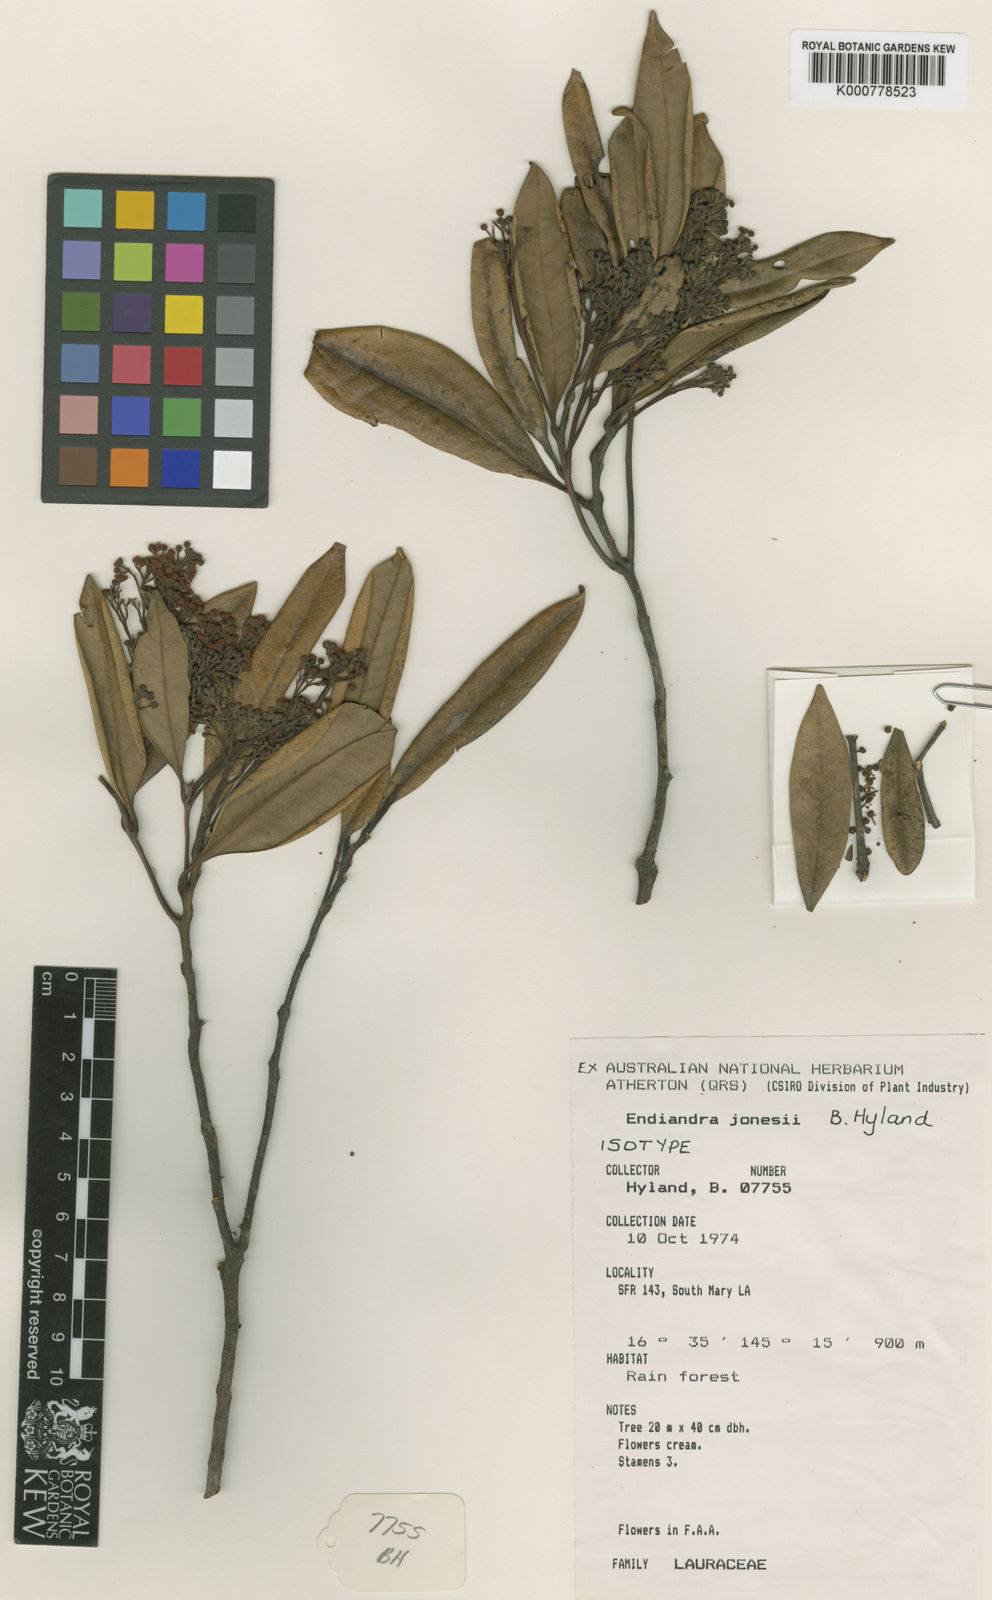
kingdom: Plantae
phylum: Tracheophyta
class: Magnoliopsida
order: Laurales
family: Lauraceae
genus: Endiandra
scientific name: Endiandra jonesii
